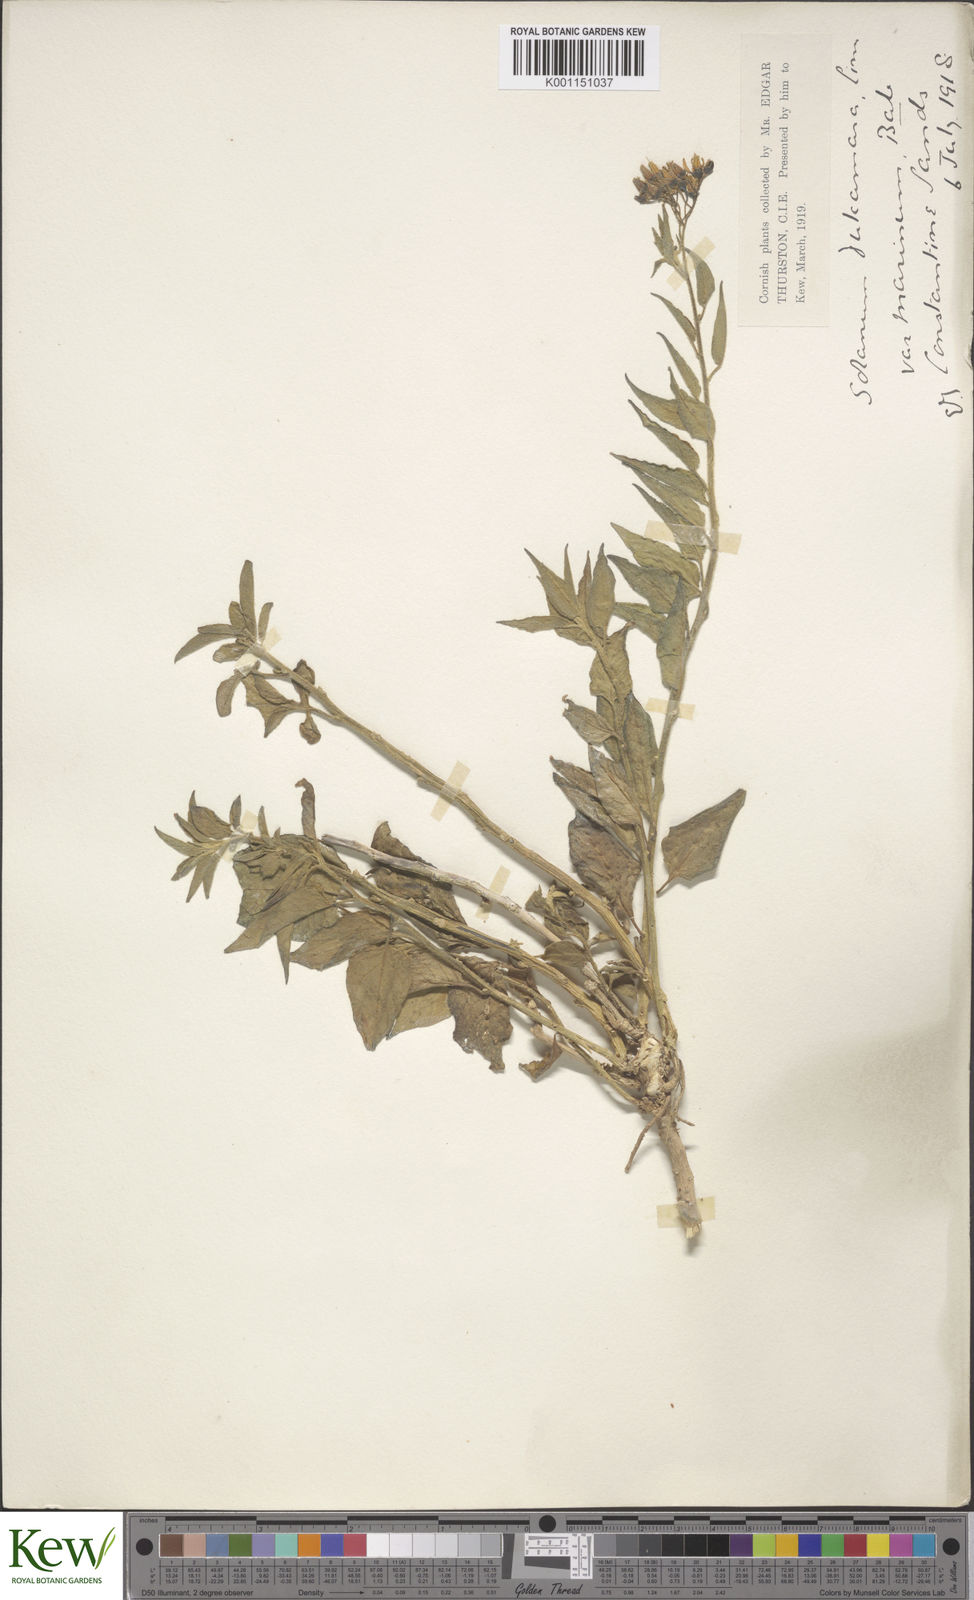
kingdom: Plantae
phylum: Tracheophyta
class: Magnoliopsida
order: Solanales
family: Solanaceae
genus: Solanum
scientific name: Solanum dulcamara
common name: Climbing nightshade
